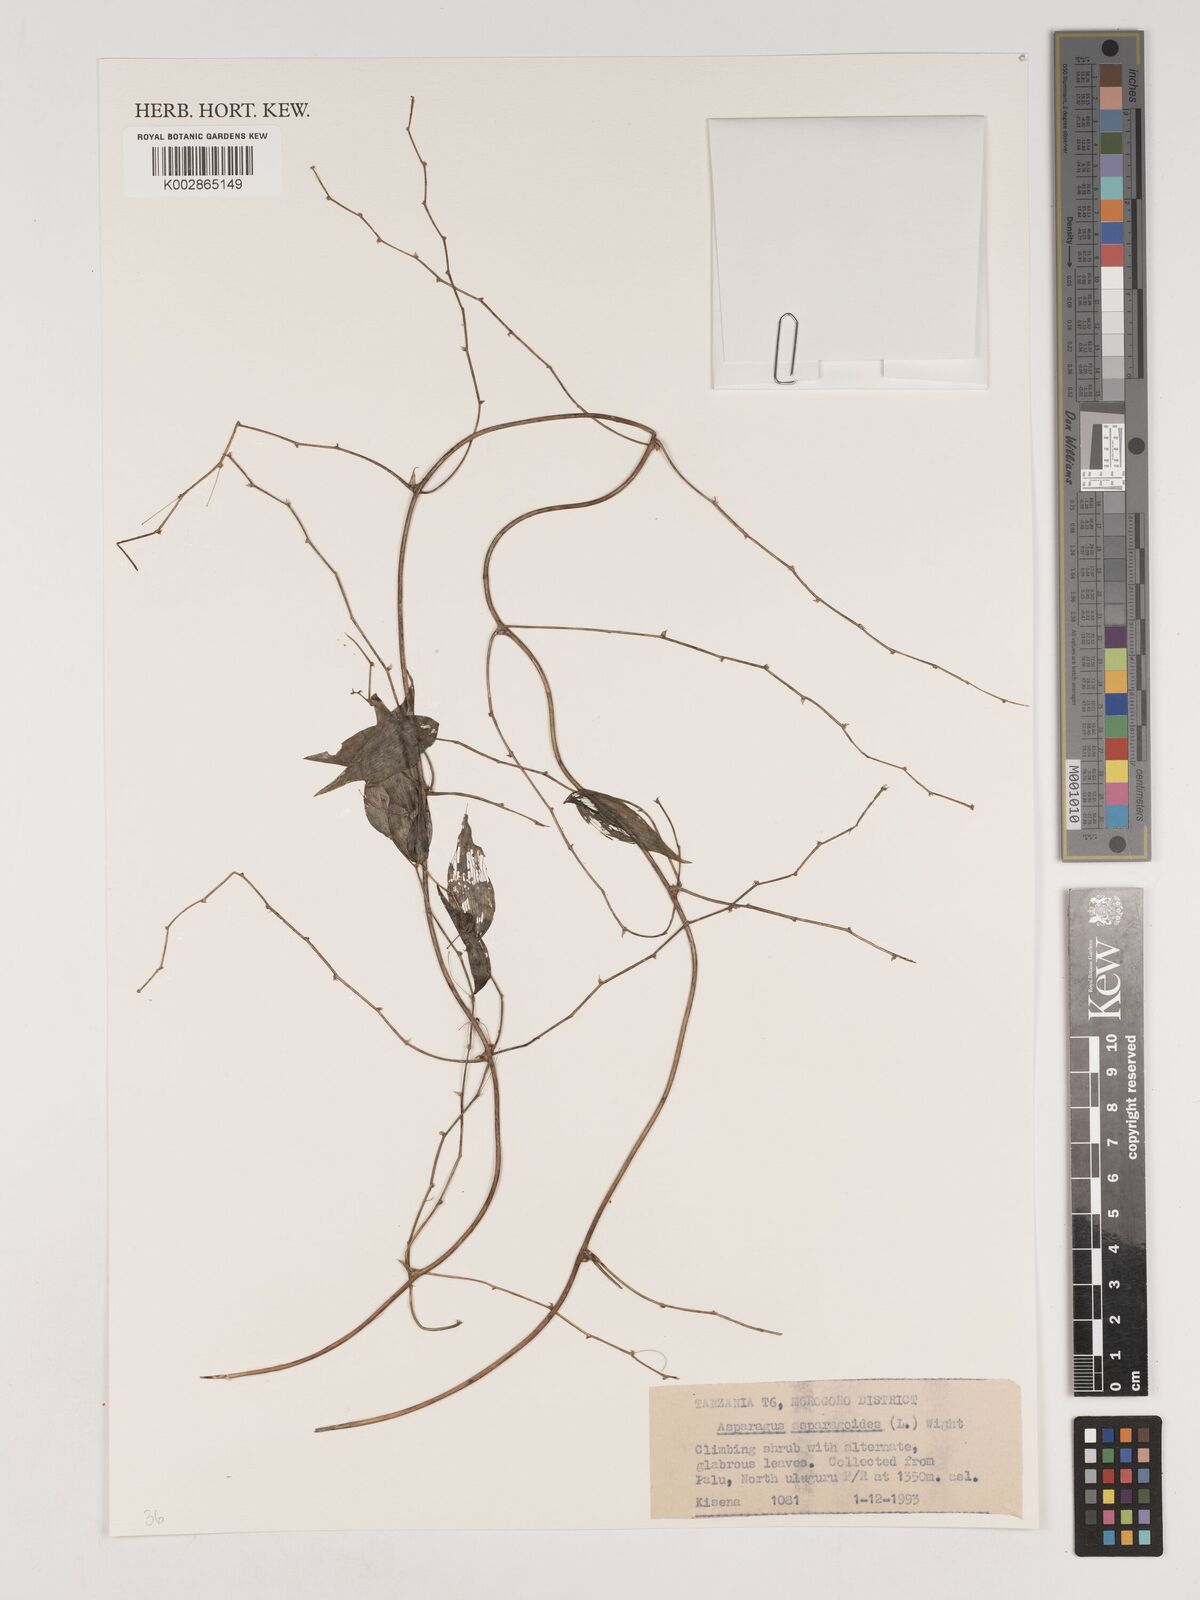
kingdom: Plantae
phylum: Tracheophyta
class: Liliopsida
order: Asparagales
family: Asparagaceae
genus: Asparagus
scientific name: Asparagus asparagoides
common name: African asparagus fern
